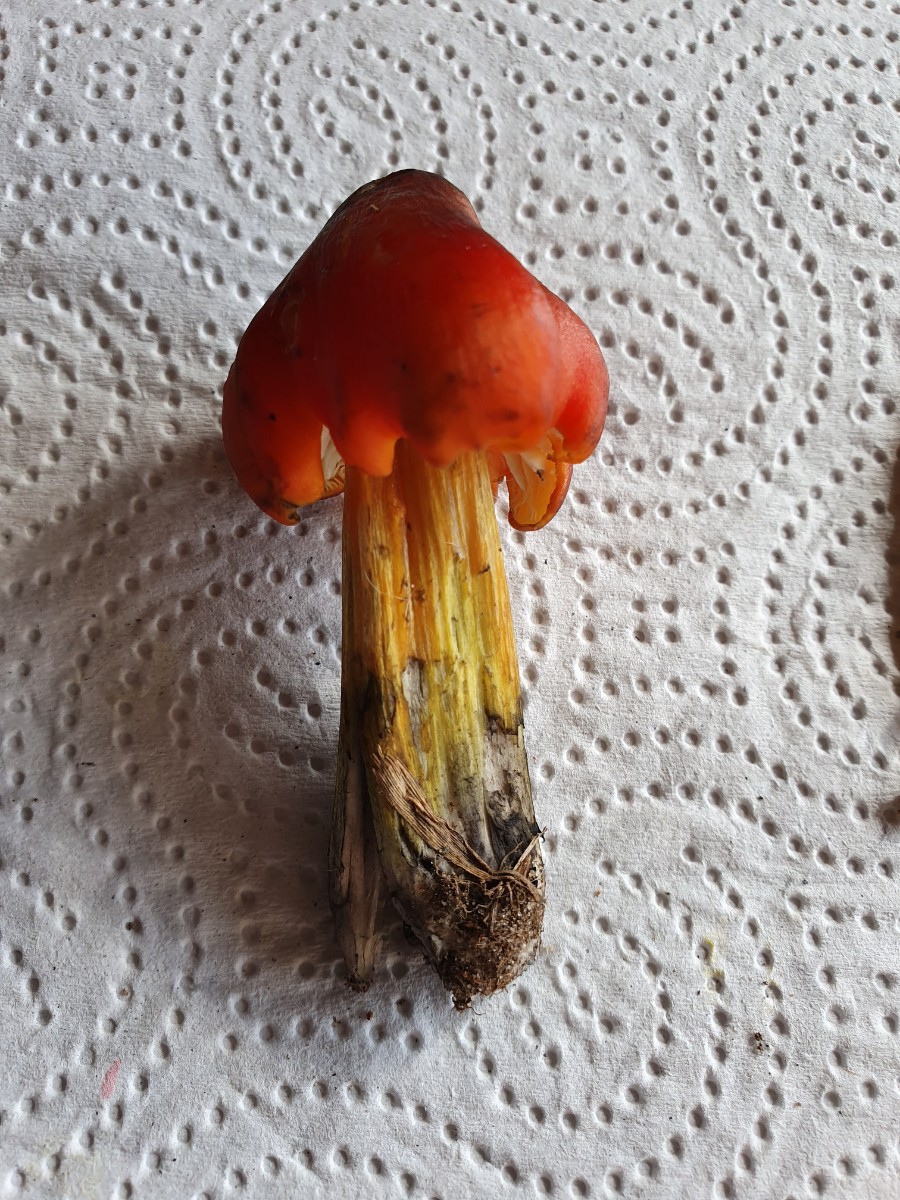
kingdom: Fungi
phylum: Basidiomycota
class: Agaricomycetes
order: Agaricales
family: Hygrophoraceae
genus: Hygrocybe
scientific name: Hygrocybe conica
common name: kegle-vokshat
